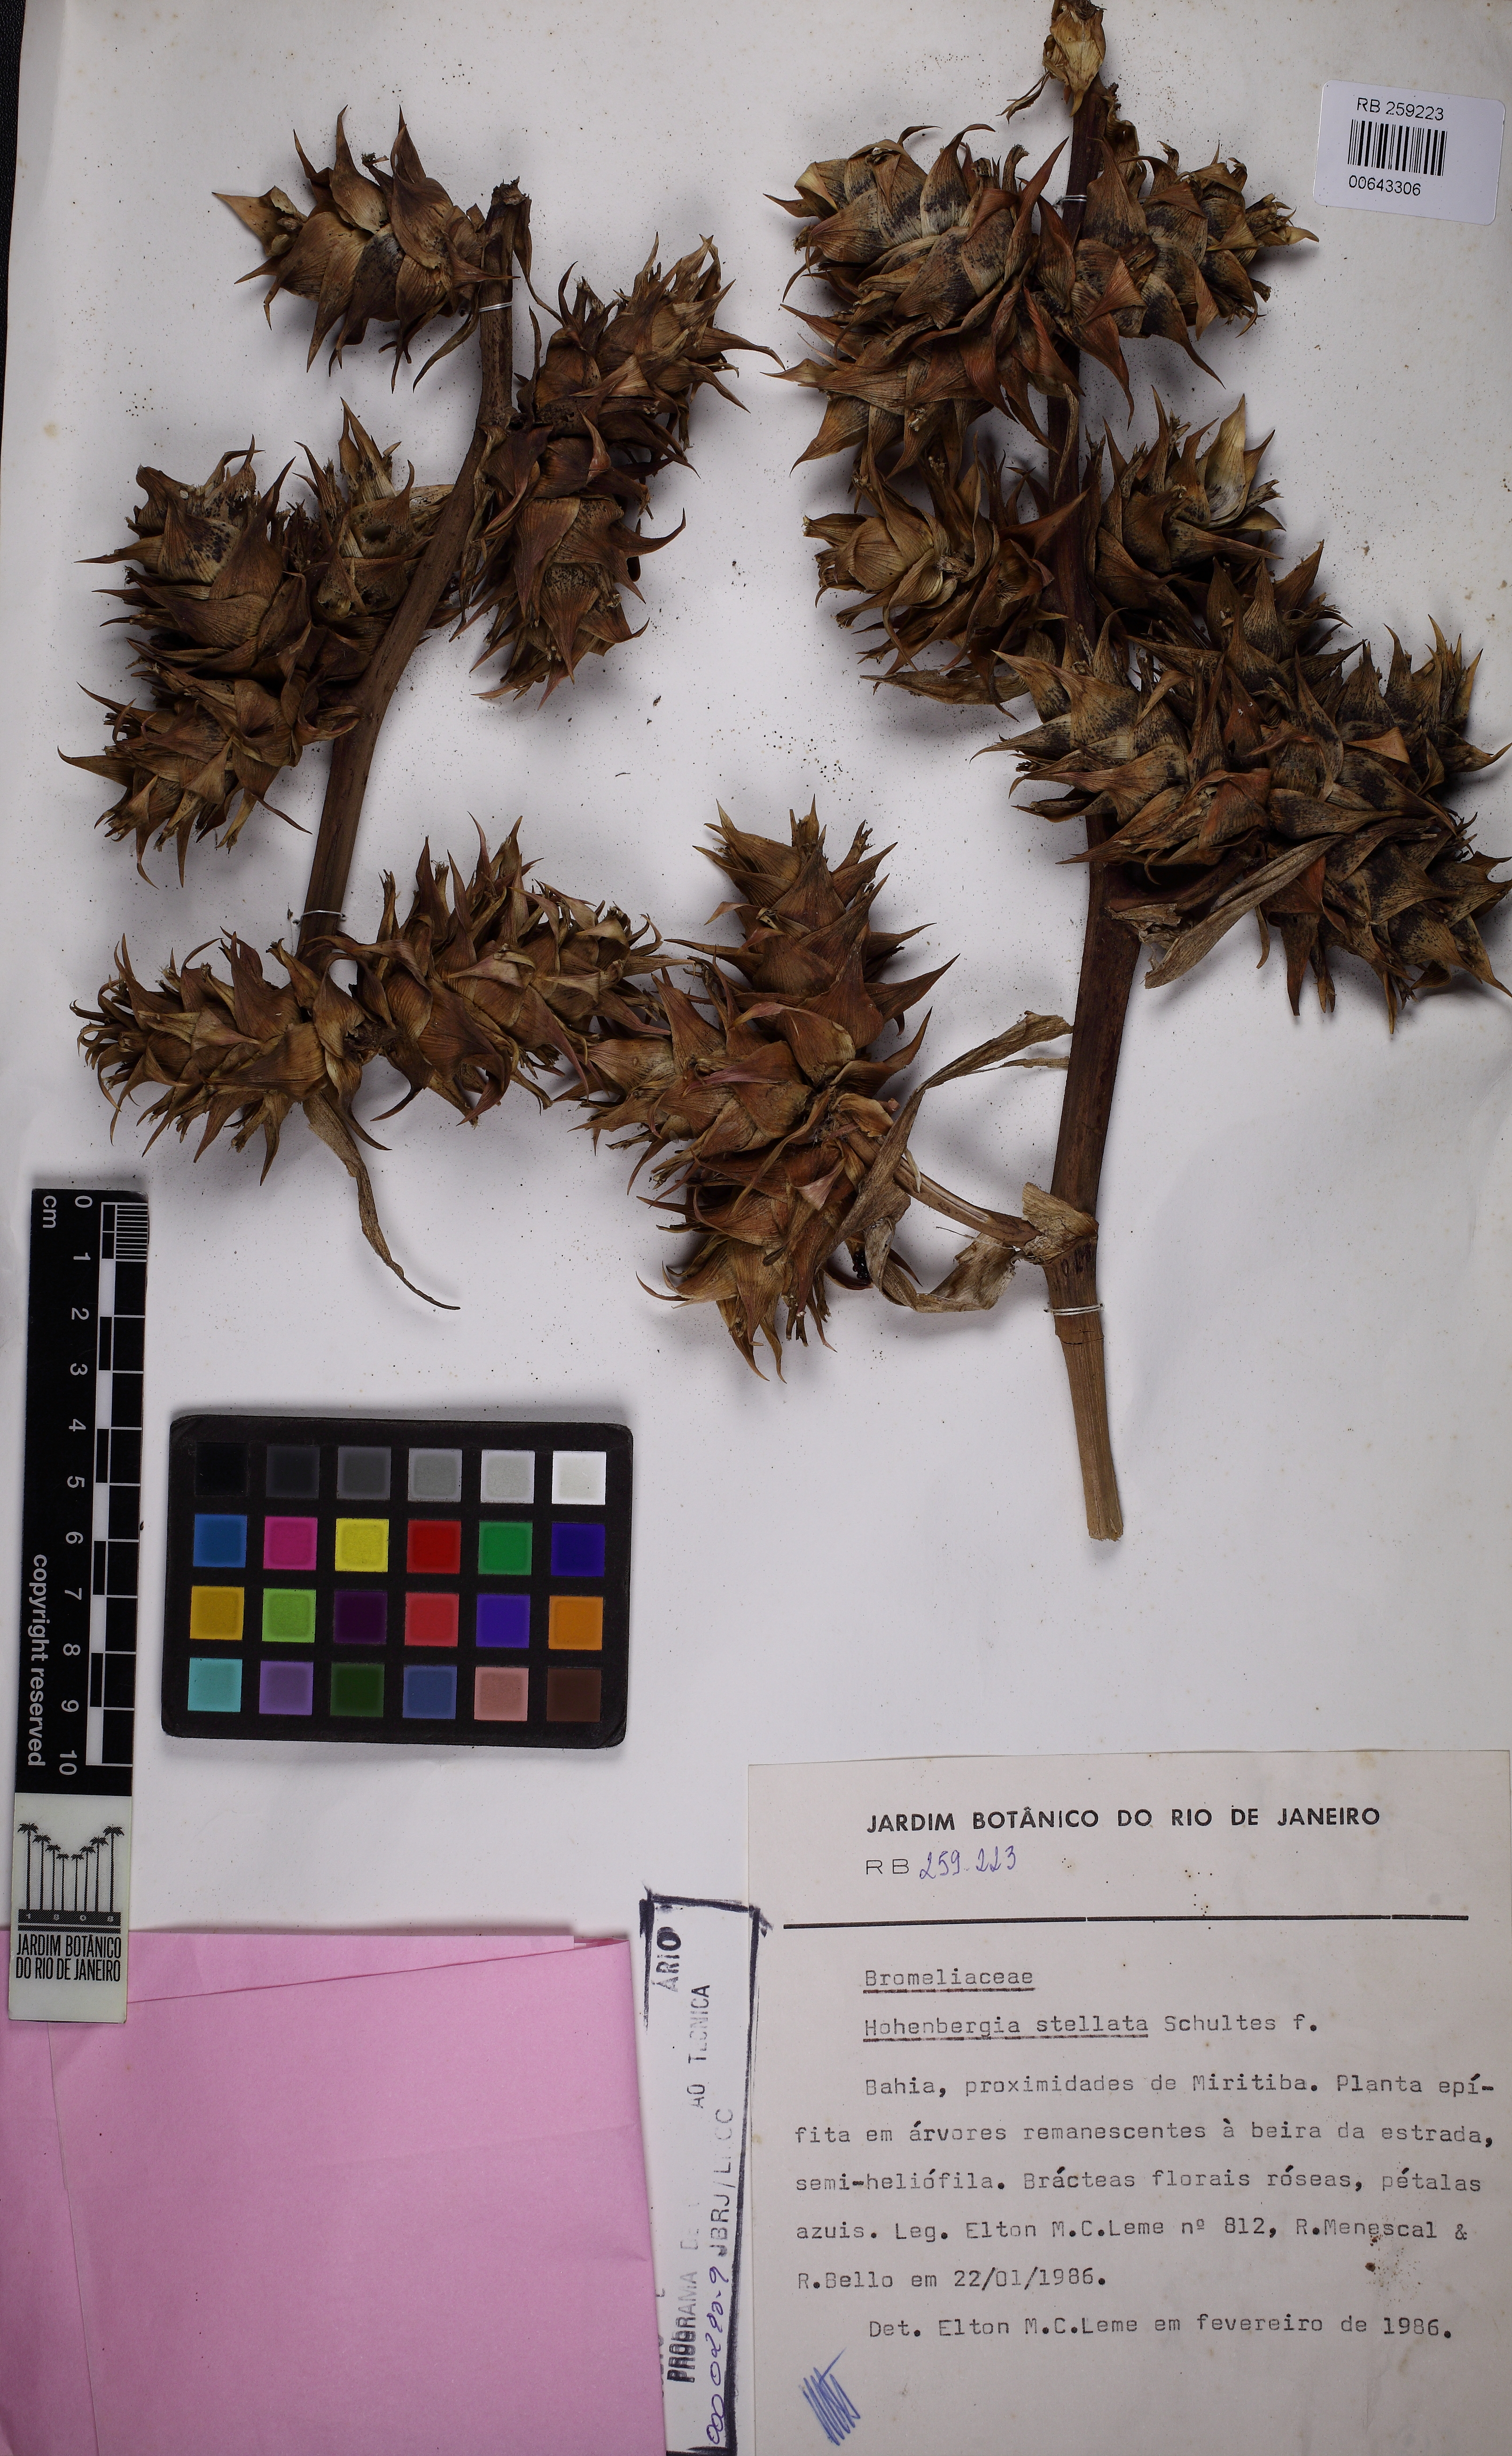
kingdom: Plantae
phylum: Tracheophyta
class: Liliopsida
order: Poales
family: Bromeliaceae
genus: Hohenbergia
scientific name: Hohenbergia stellata
